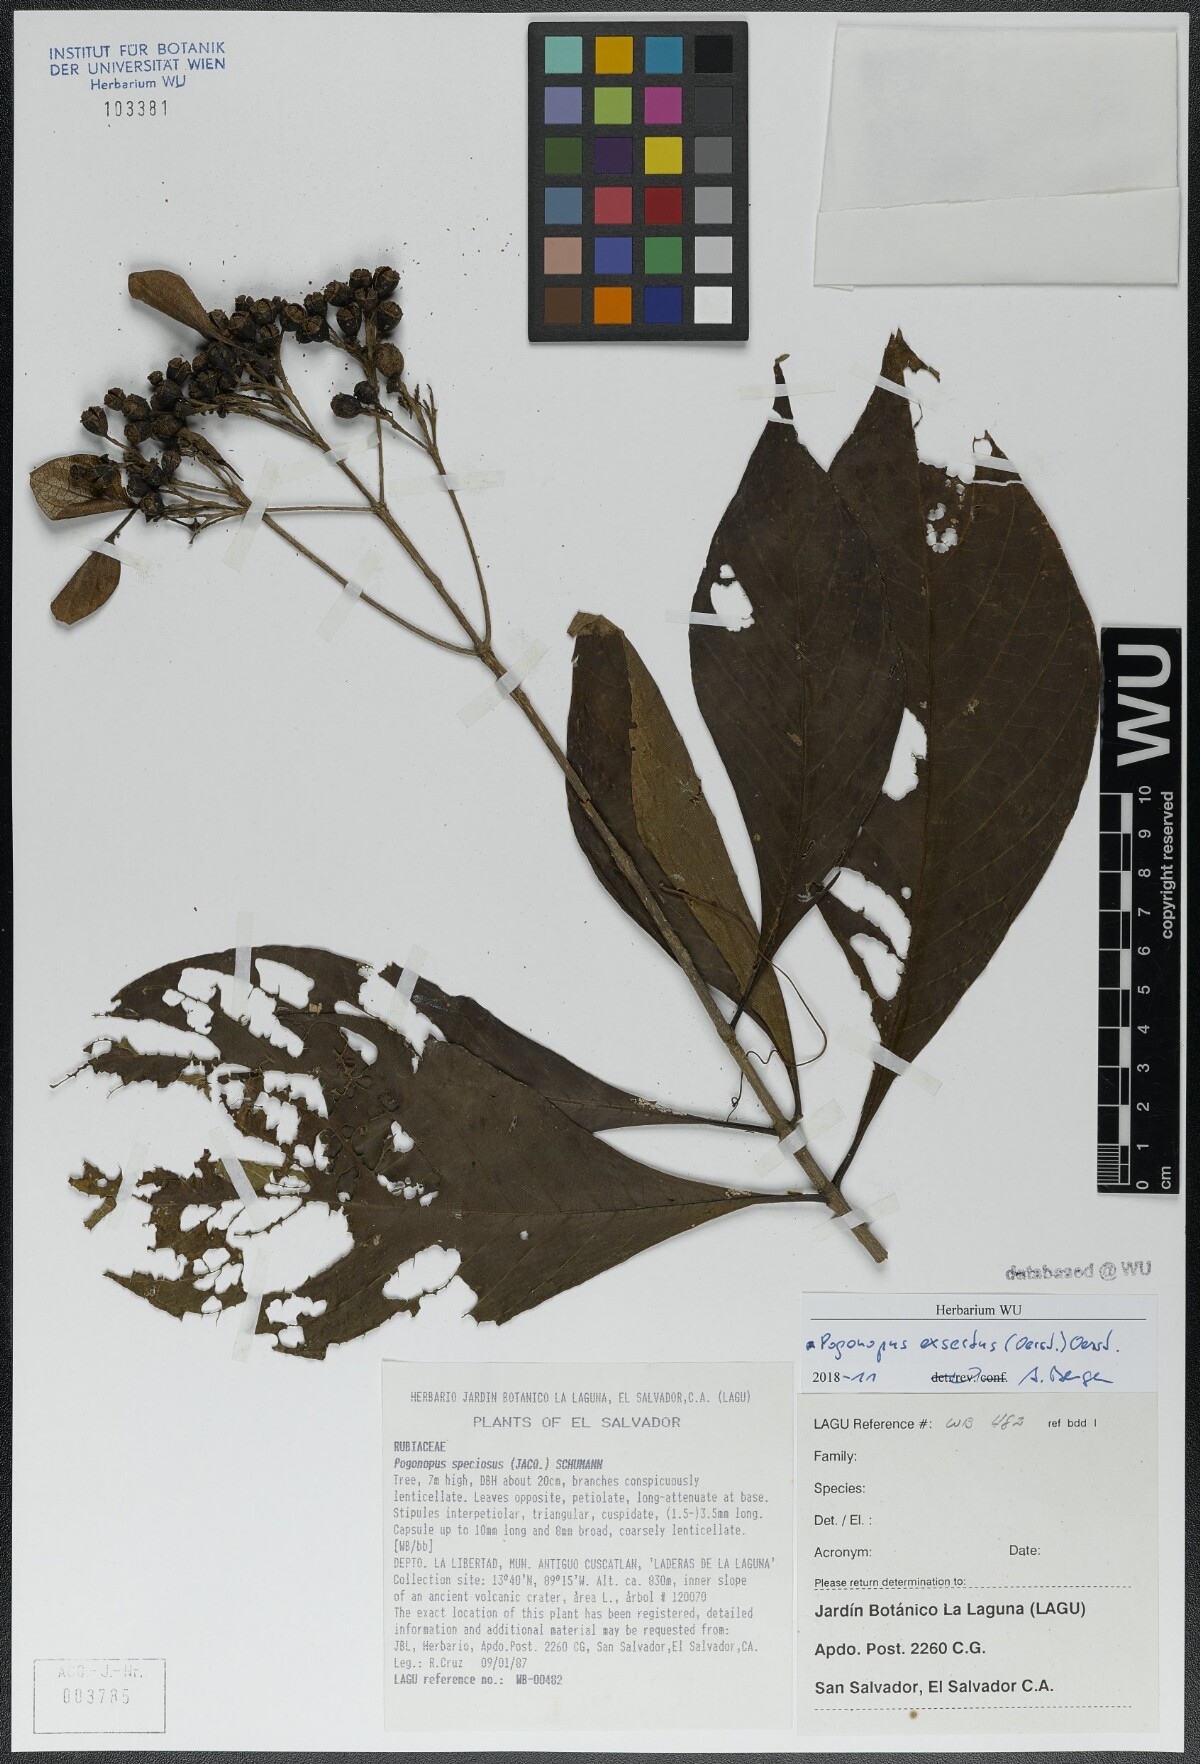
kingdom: Plantae
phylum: Tracheophyta
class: Magnoliopsida
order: Gentianales
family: Rubiaceae
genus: Pogonopus
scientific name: Pogonopus exsertus
